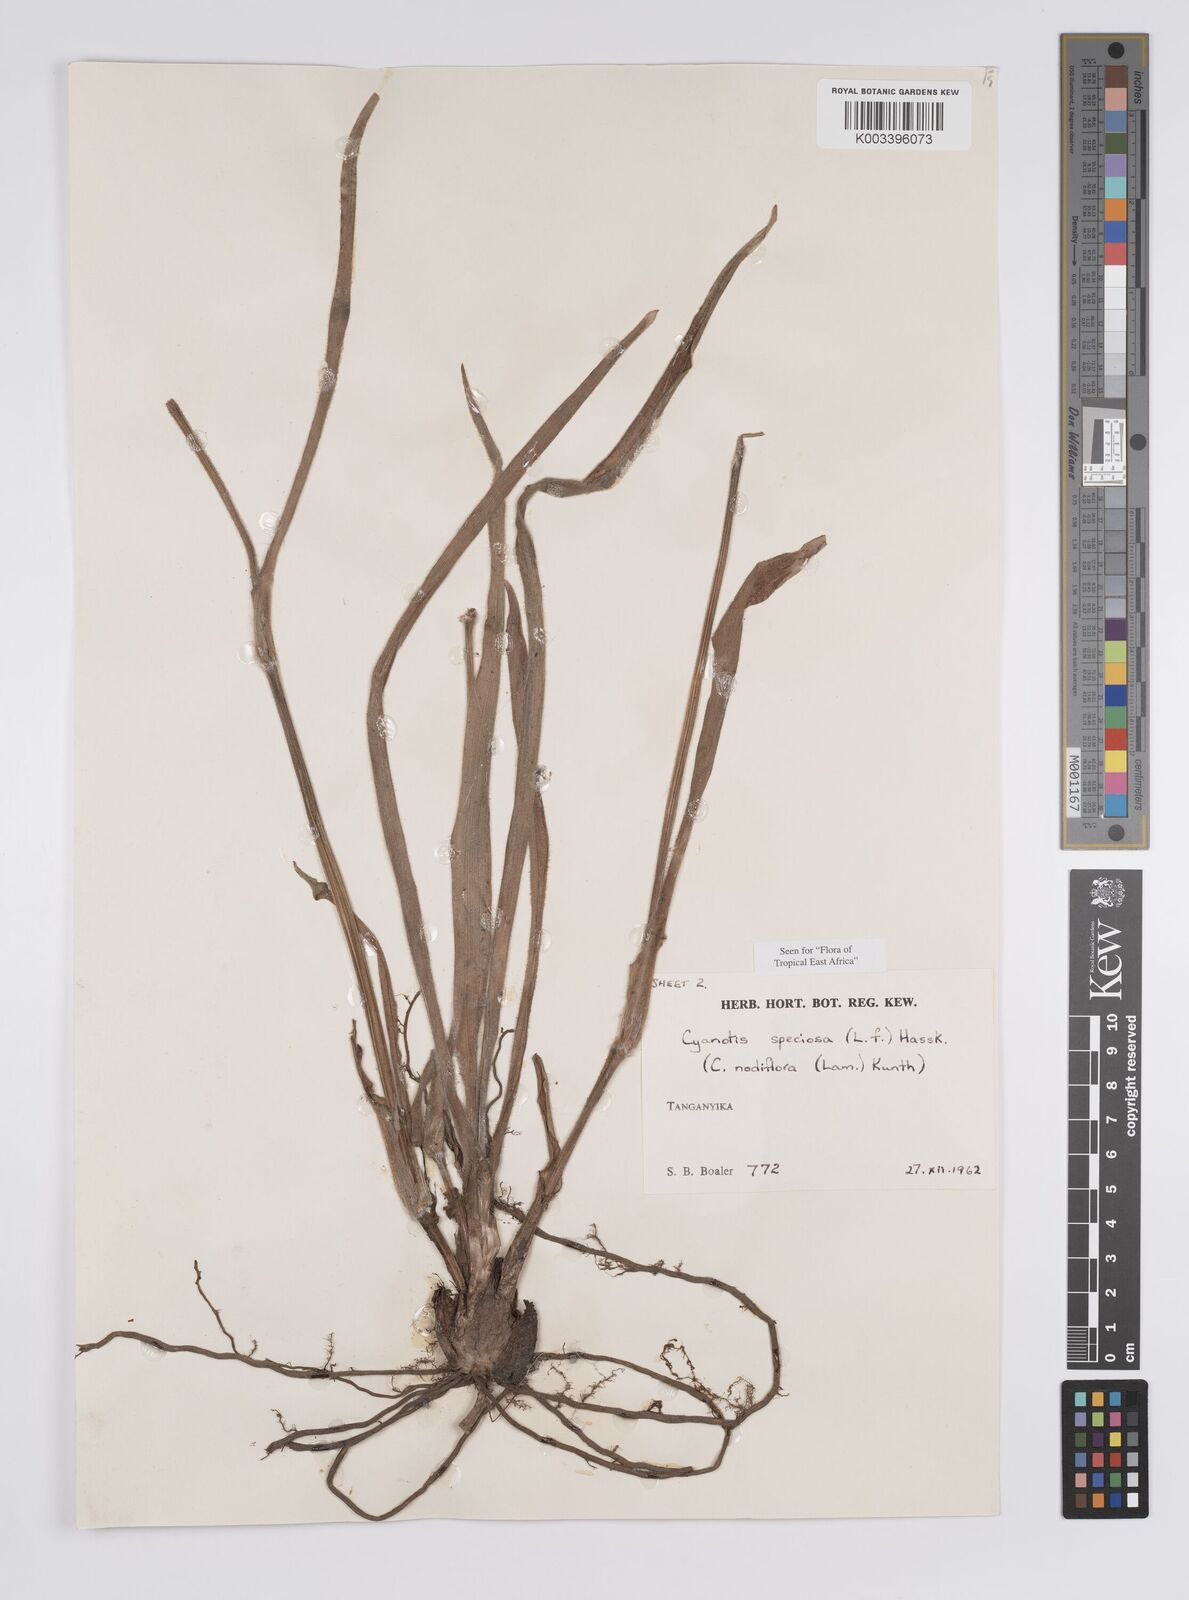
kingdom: Plantae
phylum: Tracheophyta
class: Liliopsida
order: Commelinales
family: Commelinaceae
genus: Cyanotis
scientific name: Cyanotis speciosa
